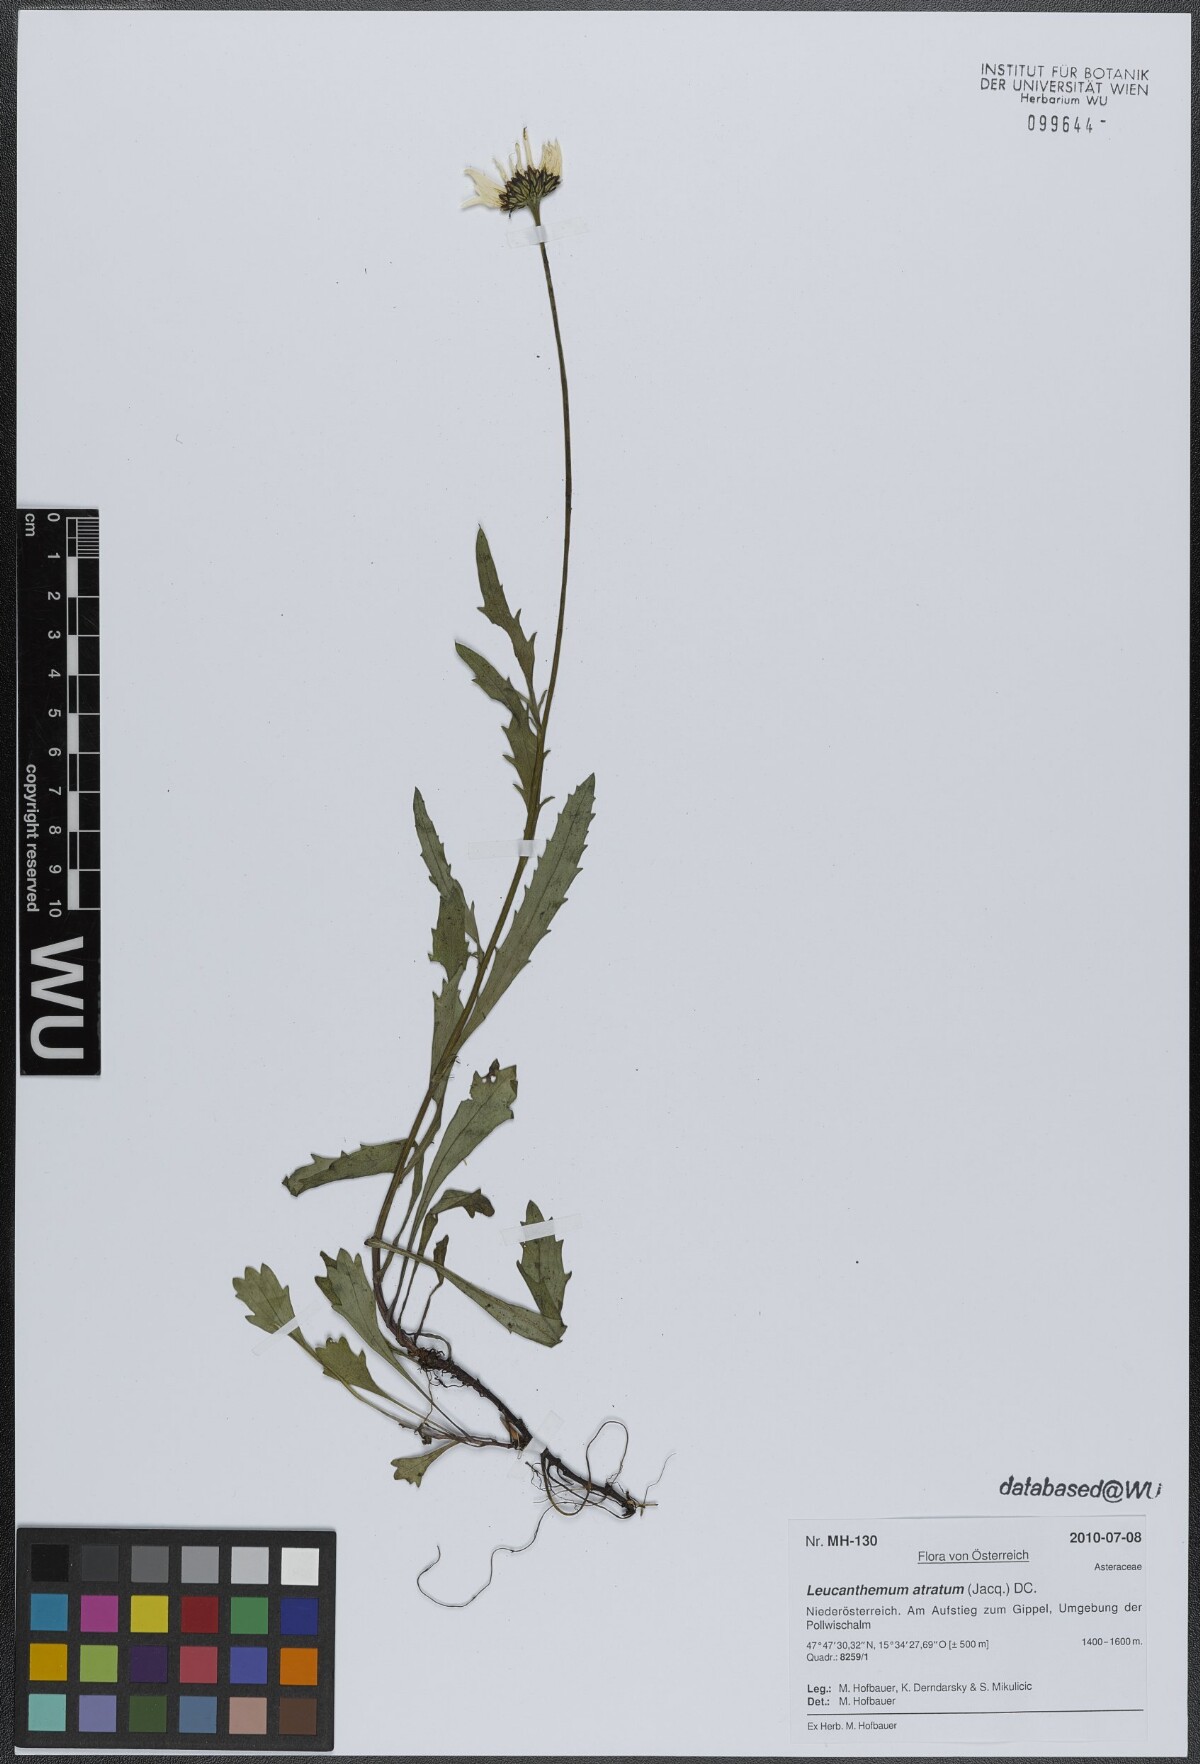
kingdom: Plantae
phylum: Tracheophyta
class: Magnoliopsida
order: Asterales
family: Asteraceae
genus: Leucanthemum
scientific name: Leucanthemum atratum
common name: Saw-leaved moon-daisy
